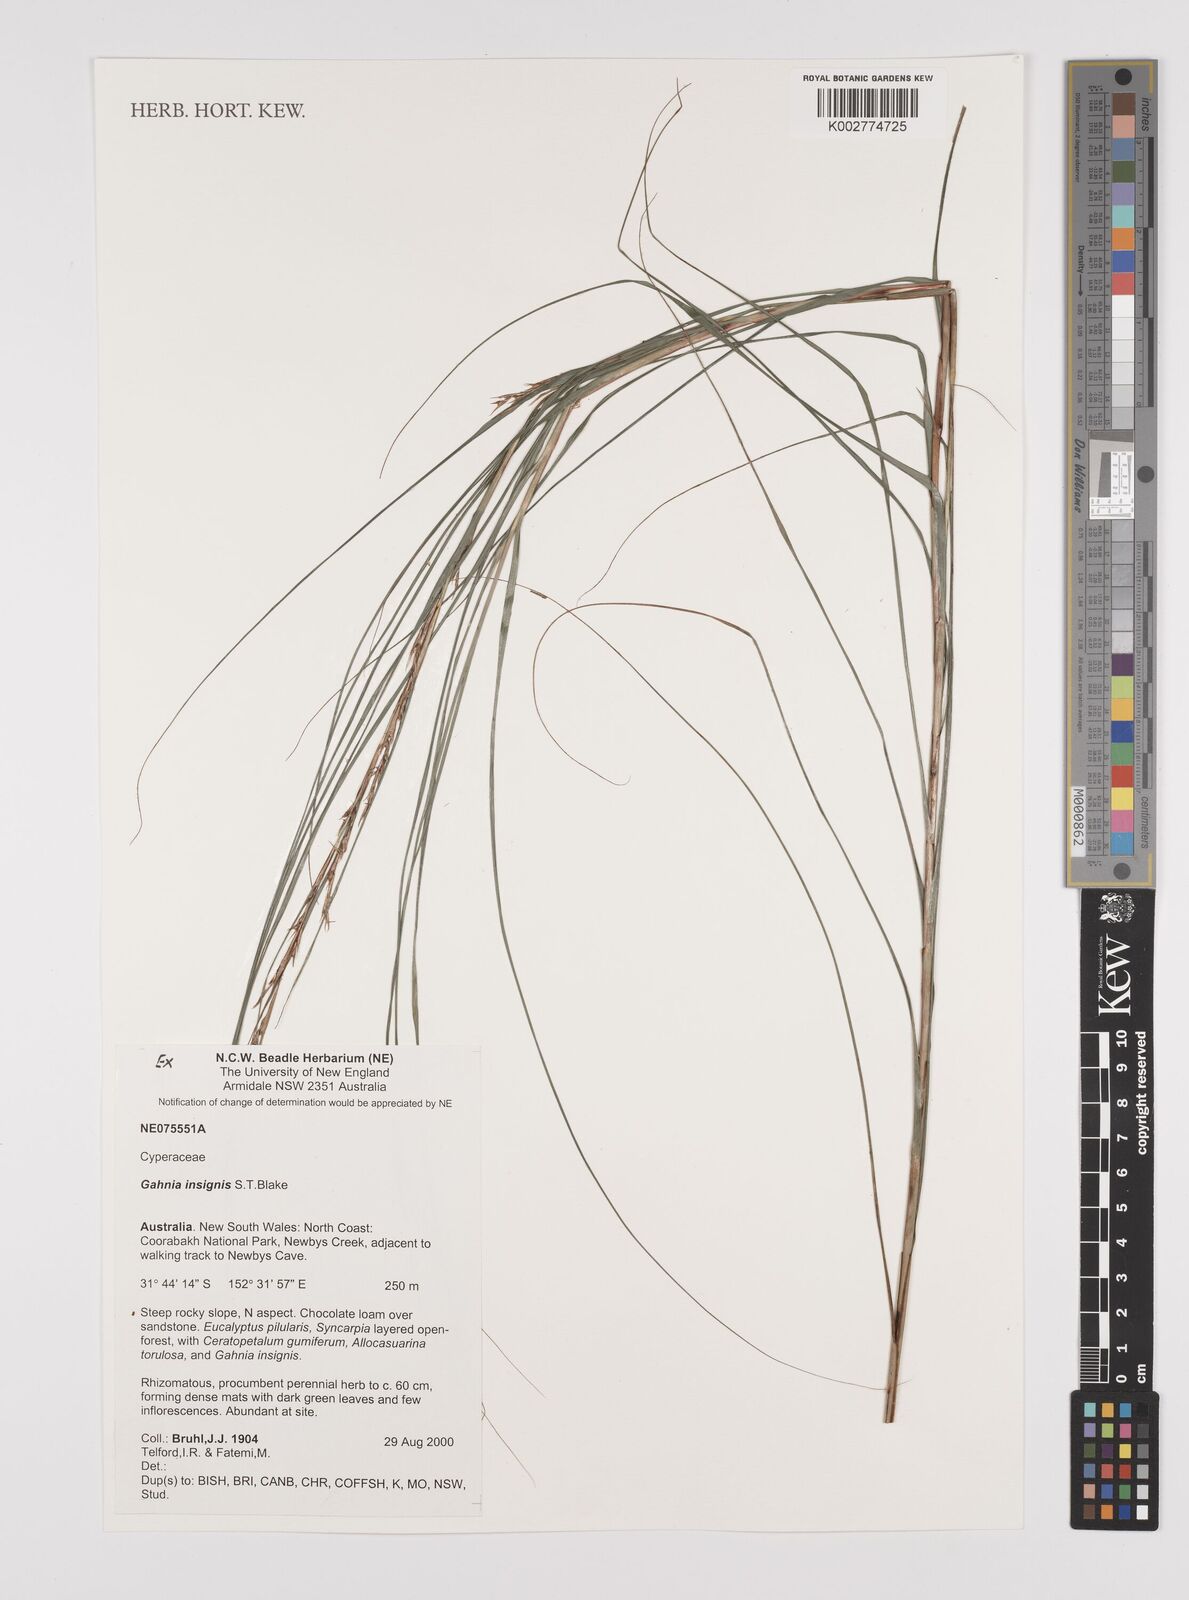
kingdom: Plantae
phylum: Tracheophyta
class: Liliopsida
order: Poales
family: Cyperaceae
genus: Gahnia
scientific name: Gahnia insignis
